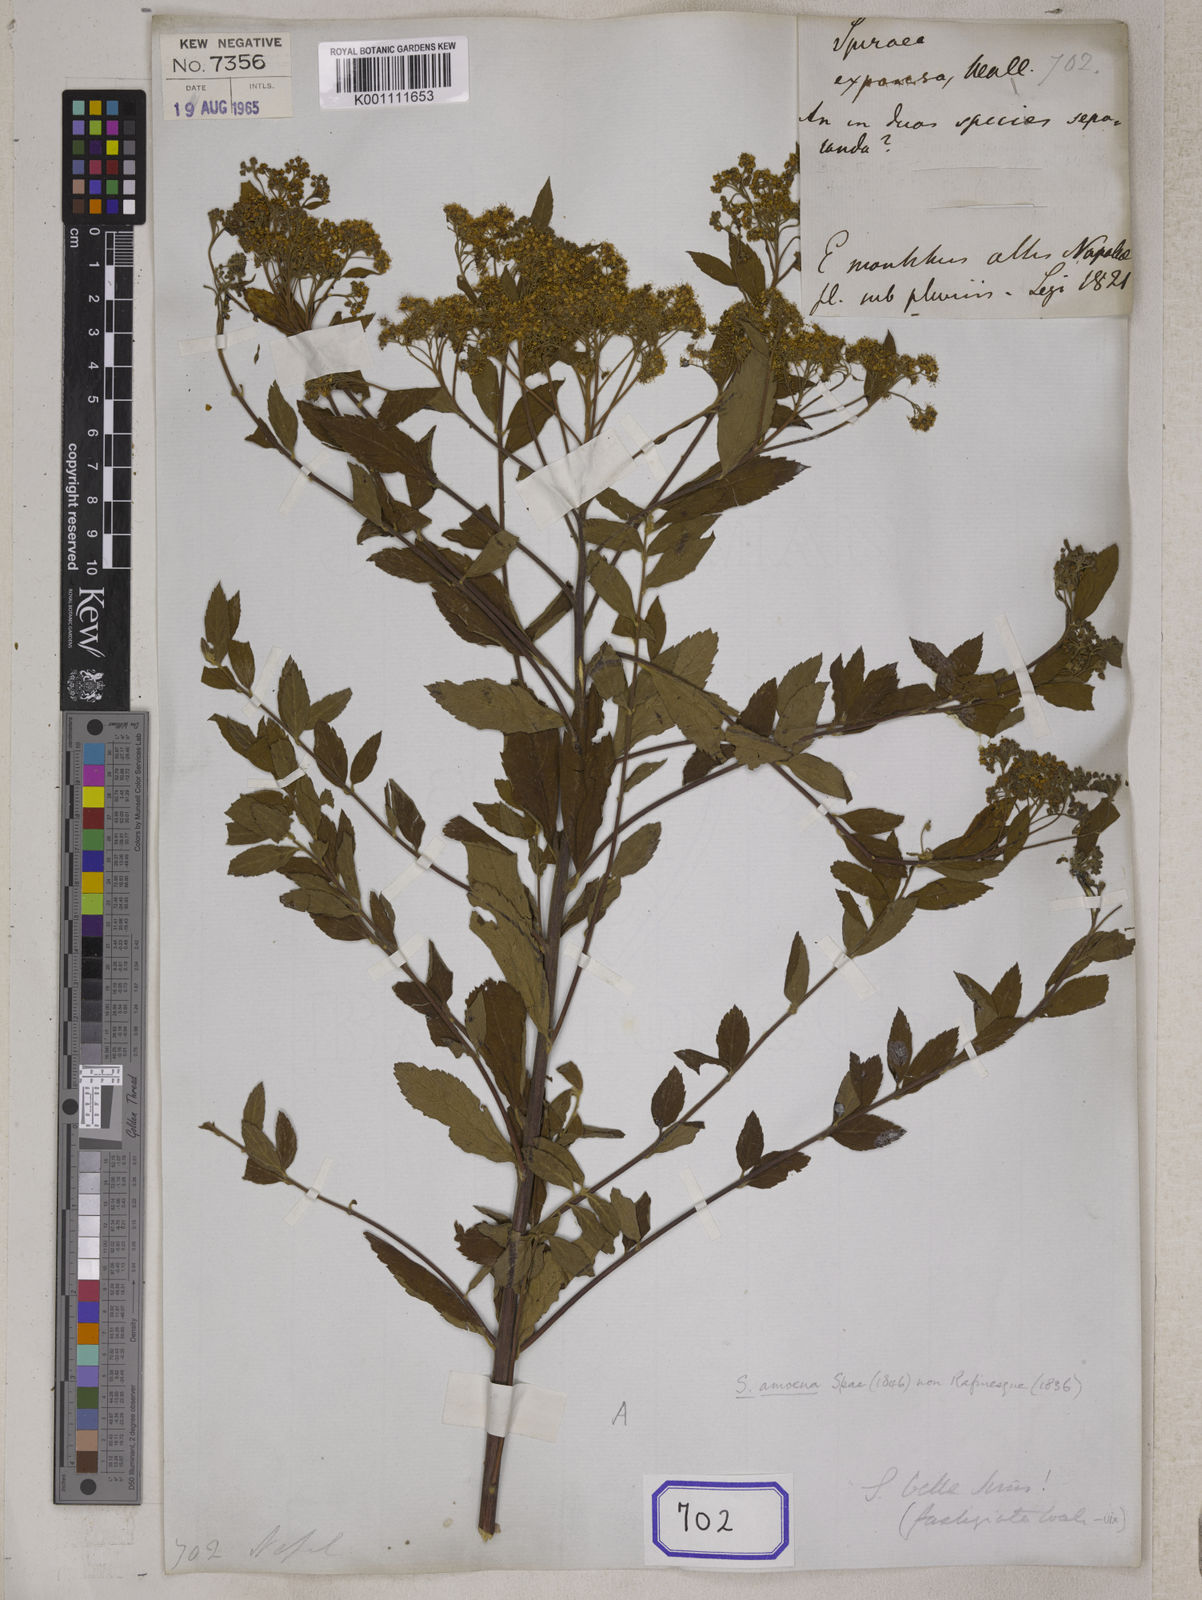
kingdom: Plantae
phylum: Tracheophyta
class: Magnoliopsida
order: Rosales
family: Rosaceae
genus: Spiraea
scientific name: Spiraea expansa
